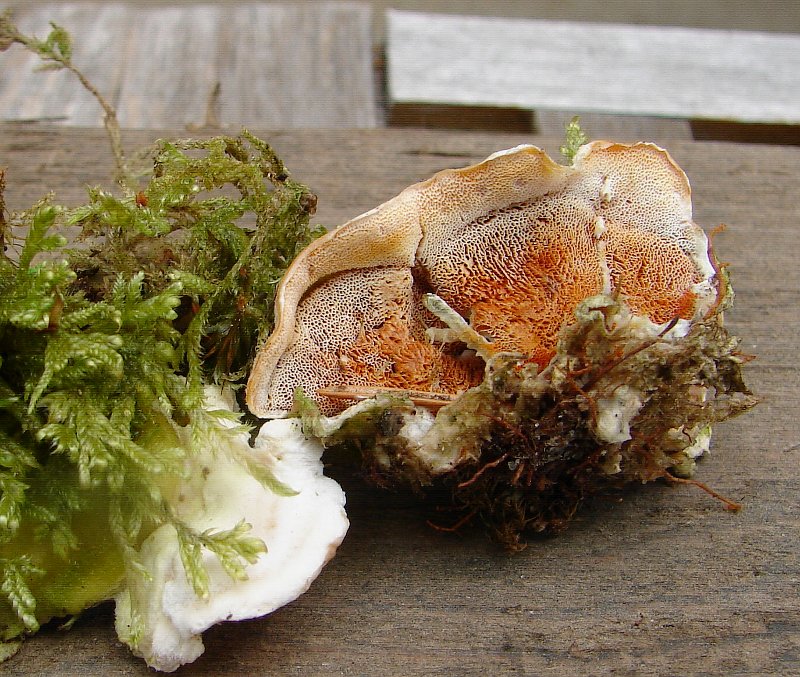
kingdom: Fungi
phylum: Basidiomycota
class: Agaricomycetes
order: Polyporales
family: Incrustoporiaceae
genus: Skeletocutis
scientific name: Skeletocutis amorpha
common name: orange krystalporesvamp
